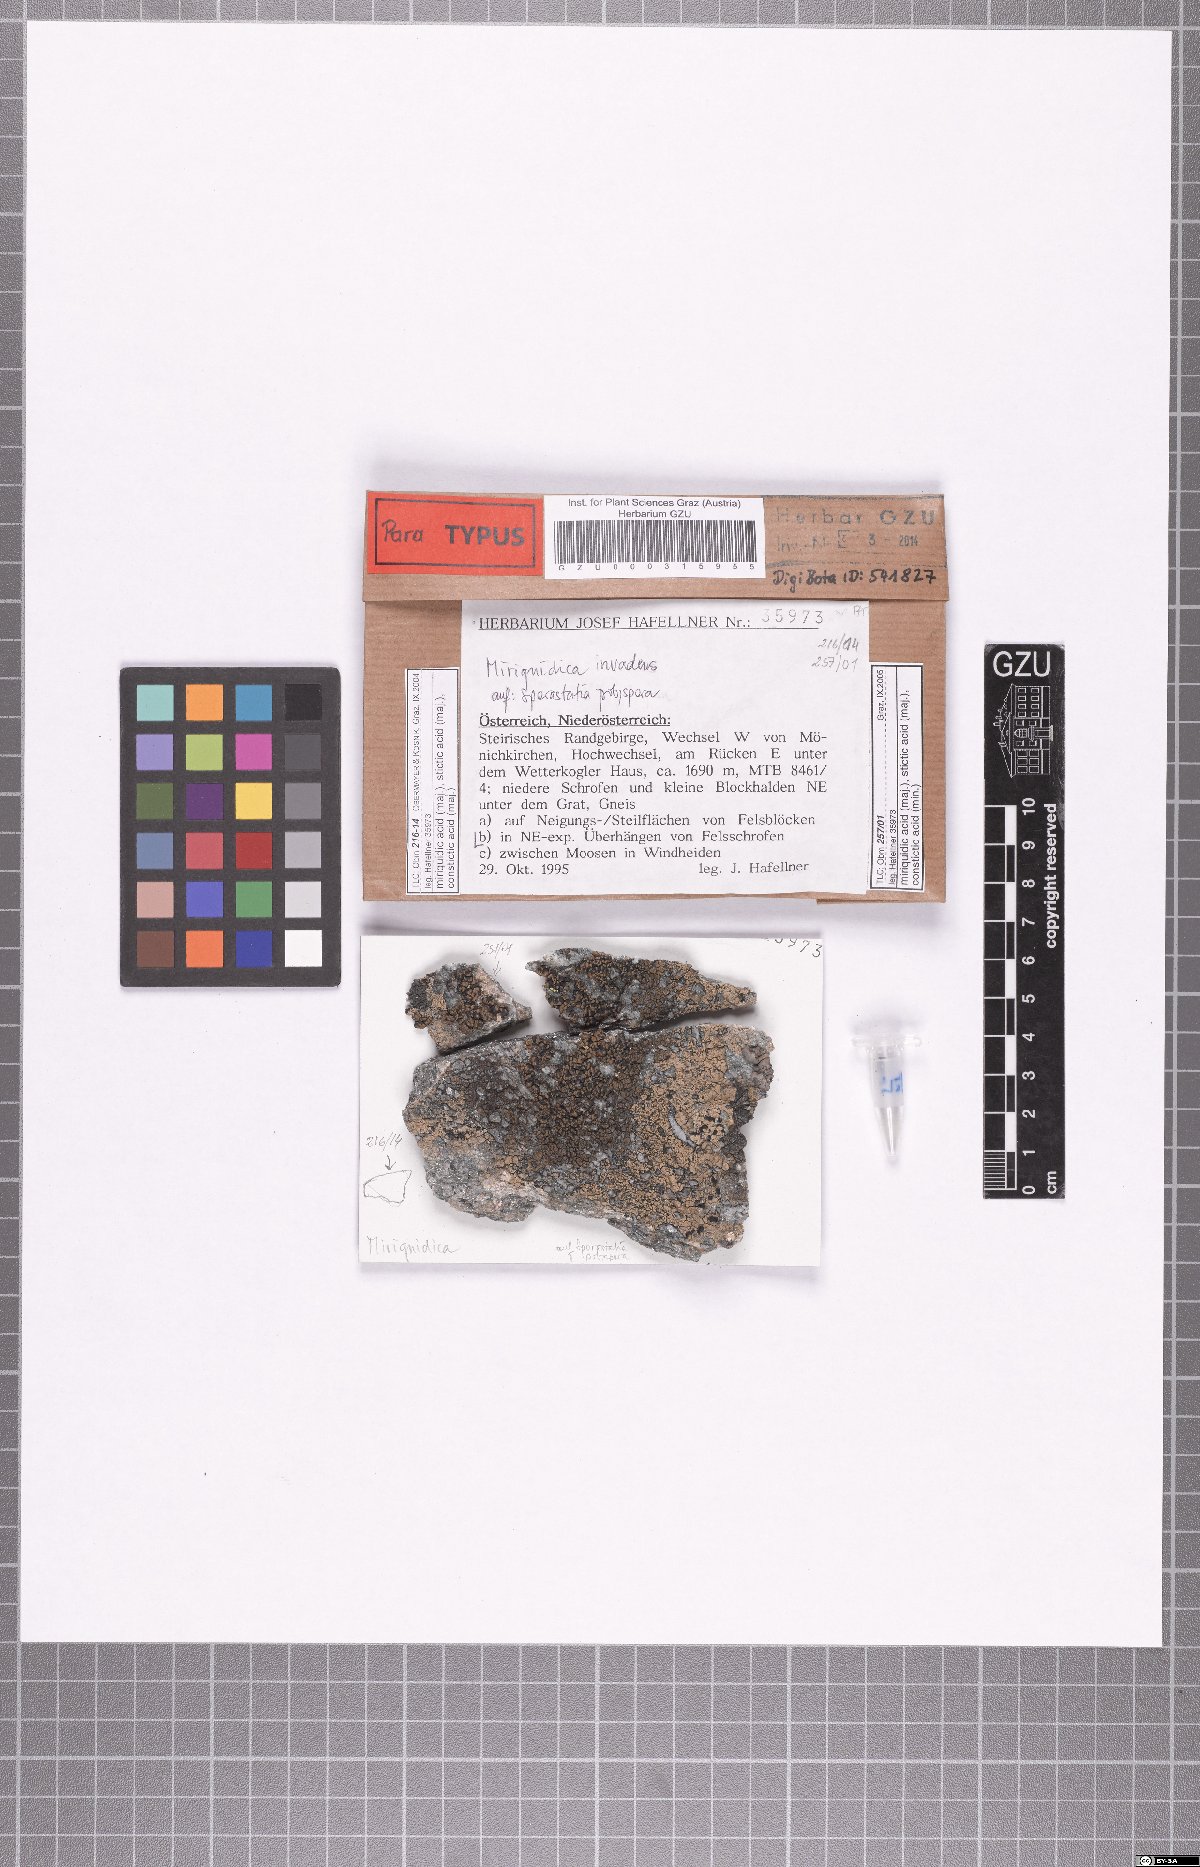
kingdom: Fungi
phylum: Ascomycota
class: Lecanoromycetes
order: Lecanorales
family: Lecanoraceae
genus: Miriquidica
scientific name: Miriquidica invadens
